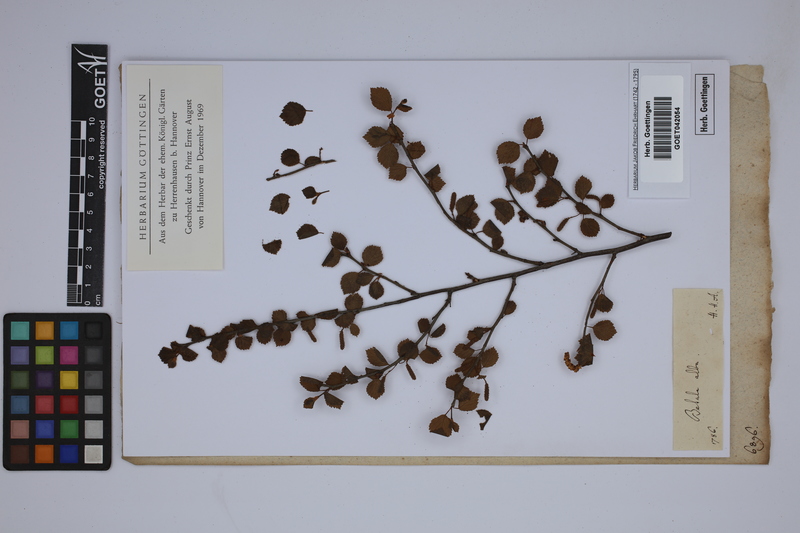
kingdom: Plantae
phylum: Tracheophyta
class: Magnoliopsida
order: Fagales
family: Betulaceae
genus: Betula
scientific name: Betula pubescens
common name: Downy birch
